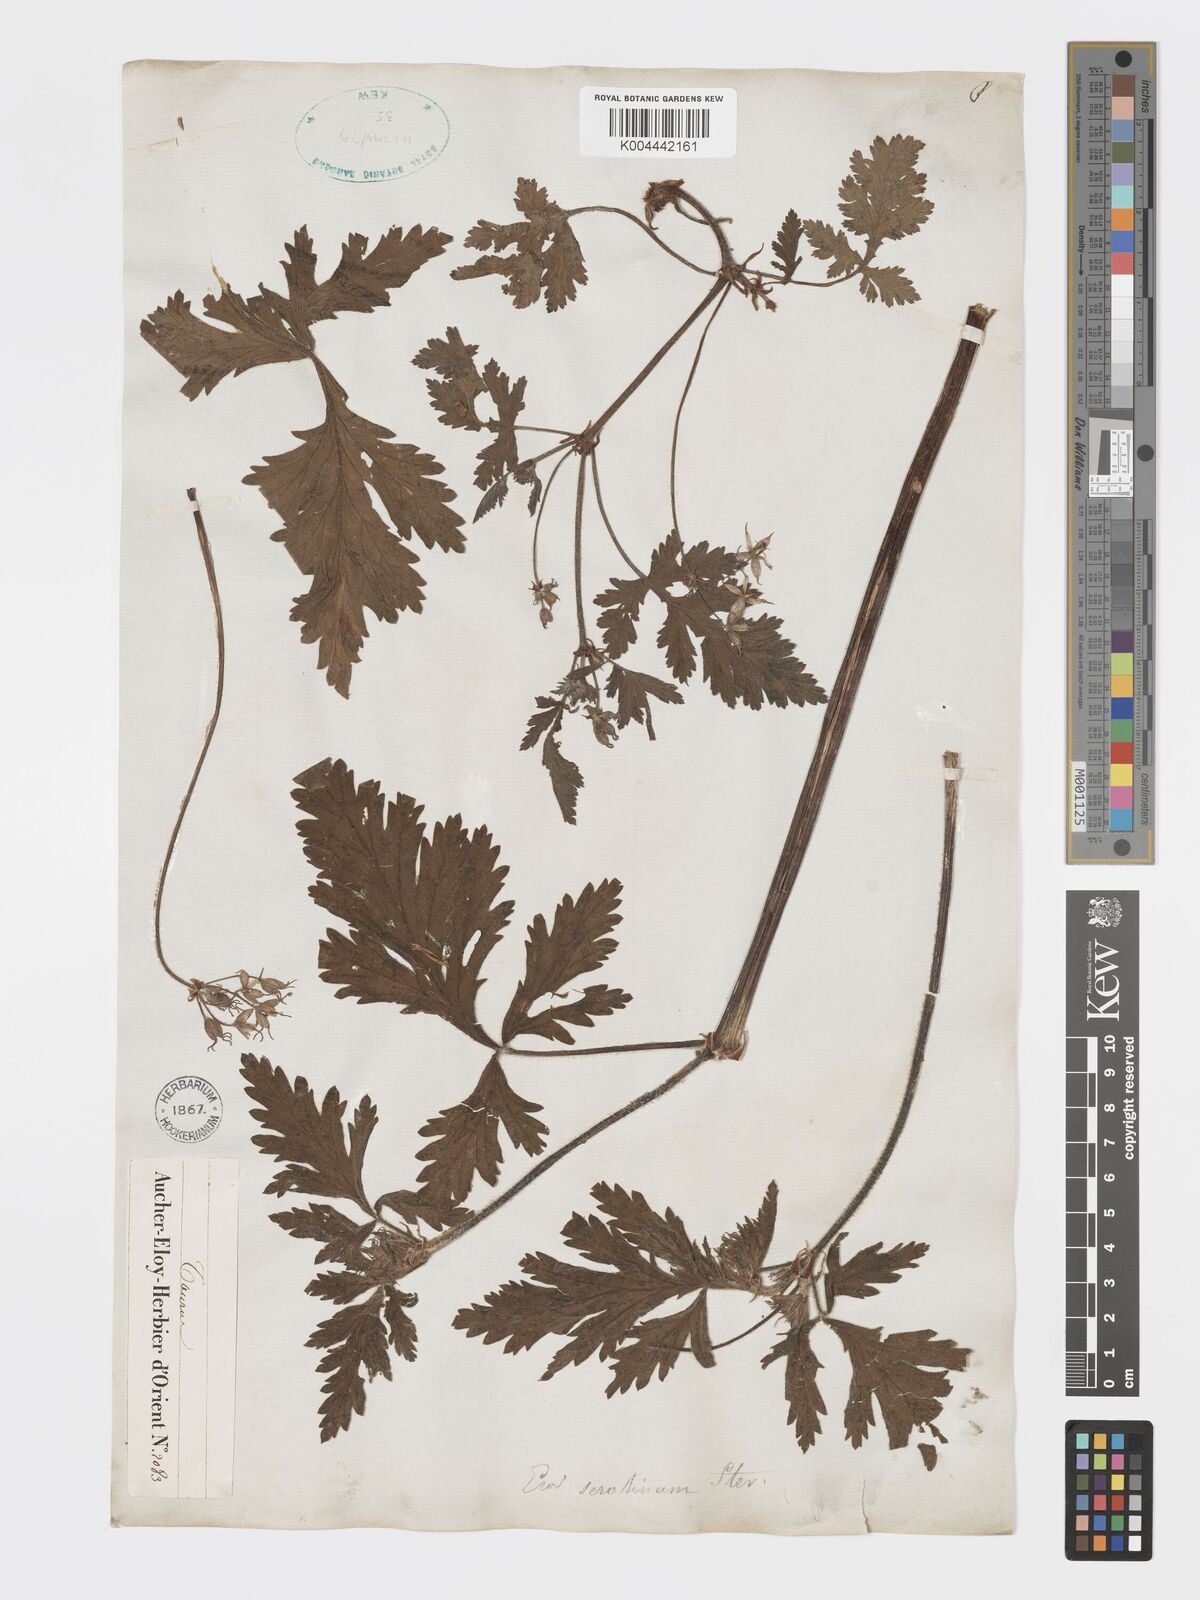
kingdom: Plantae
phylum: Tracheophyta
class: Magnoliopsida
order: Geraniales
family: Geraniaceae
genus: Erodium
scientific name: Erodium ruthenicum
